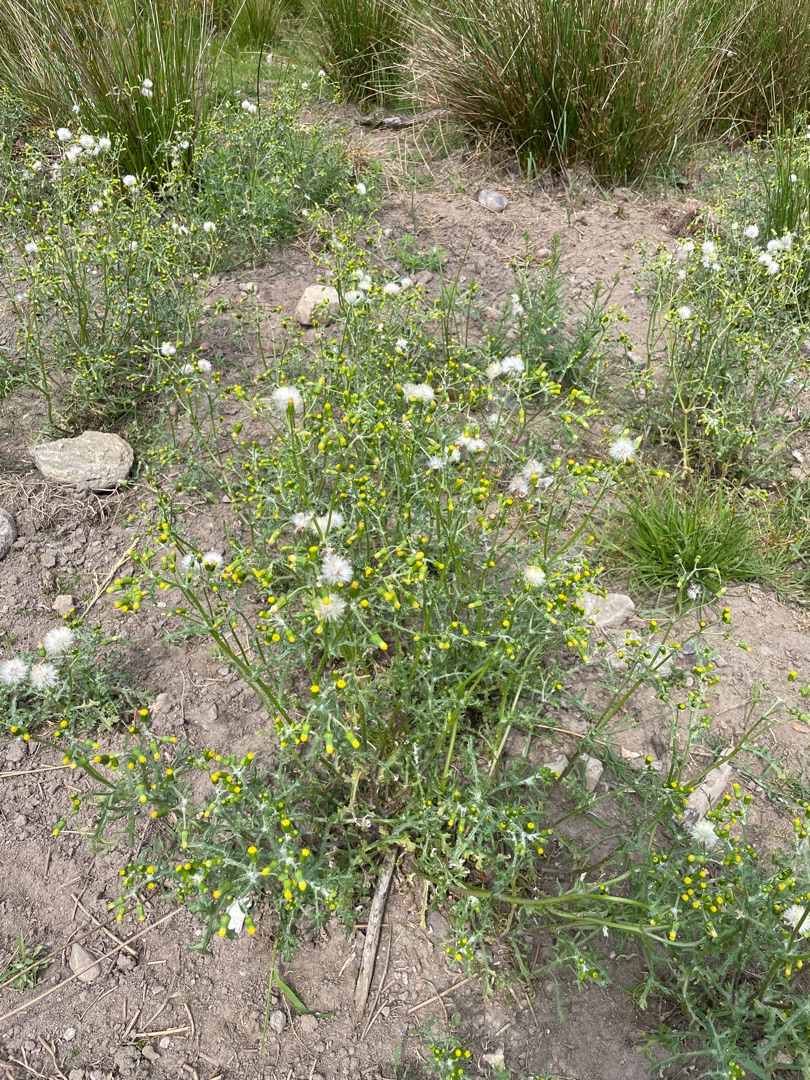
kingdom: Plantae
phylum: Tracheophyta
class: Magnoliopsida
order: Asterales
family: Asteraceae
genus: Senecio
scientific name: Senecio vulgaris
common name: Almindelig brandbæger
